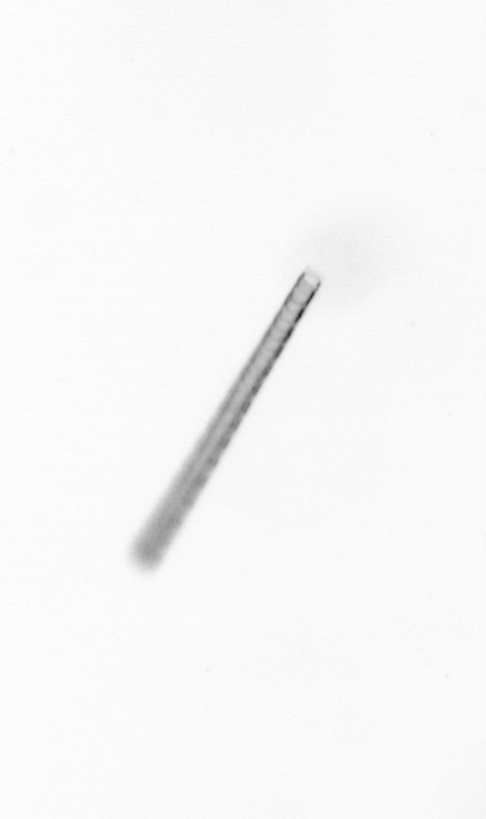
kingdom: Chromista
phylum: Ochrophyta
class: Bacillariophyceae
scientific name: Bacillariophyceae
